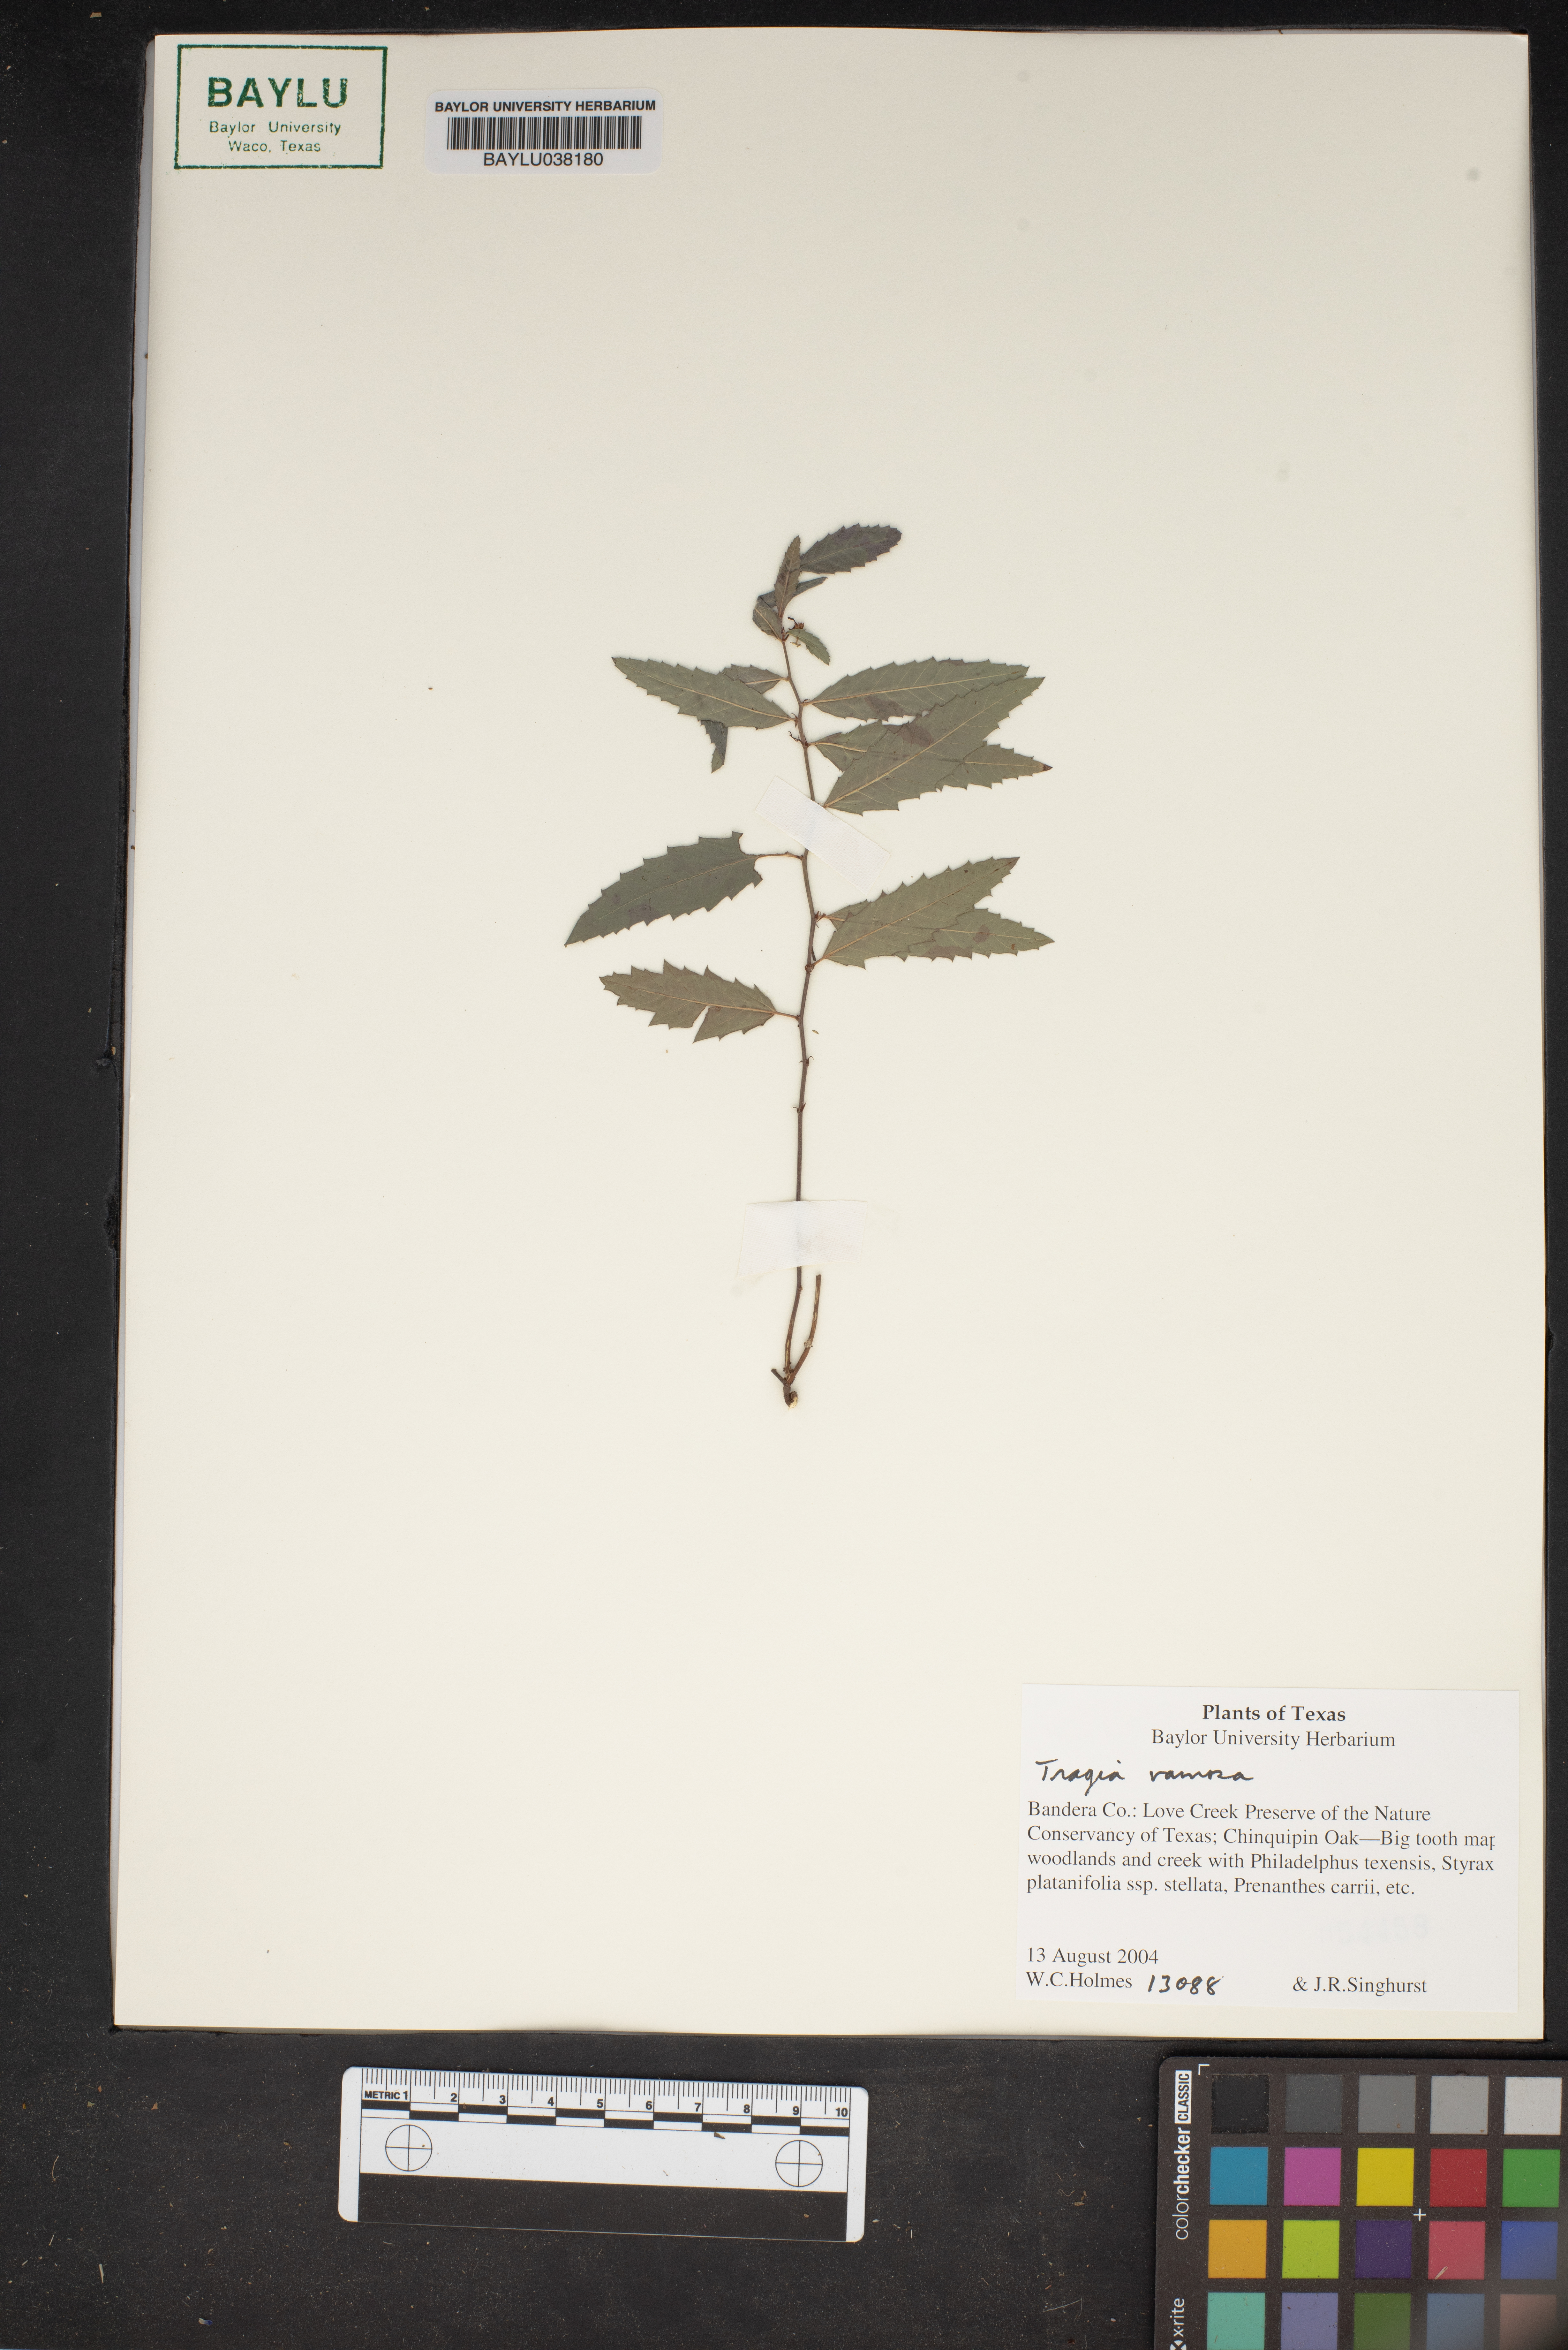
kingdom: Plantae
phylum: Tracheophyta
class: Magnoliopsida
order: Malpighiales
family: Euphorbiaceae
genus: Tragia
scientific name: Tragia ramosa
